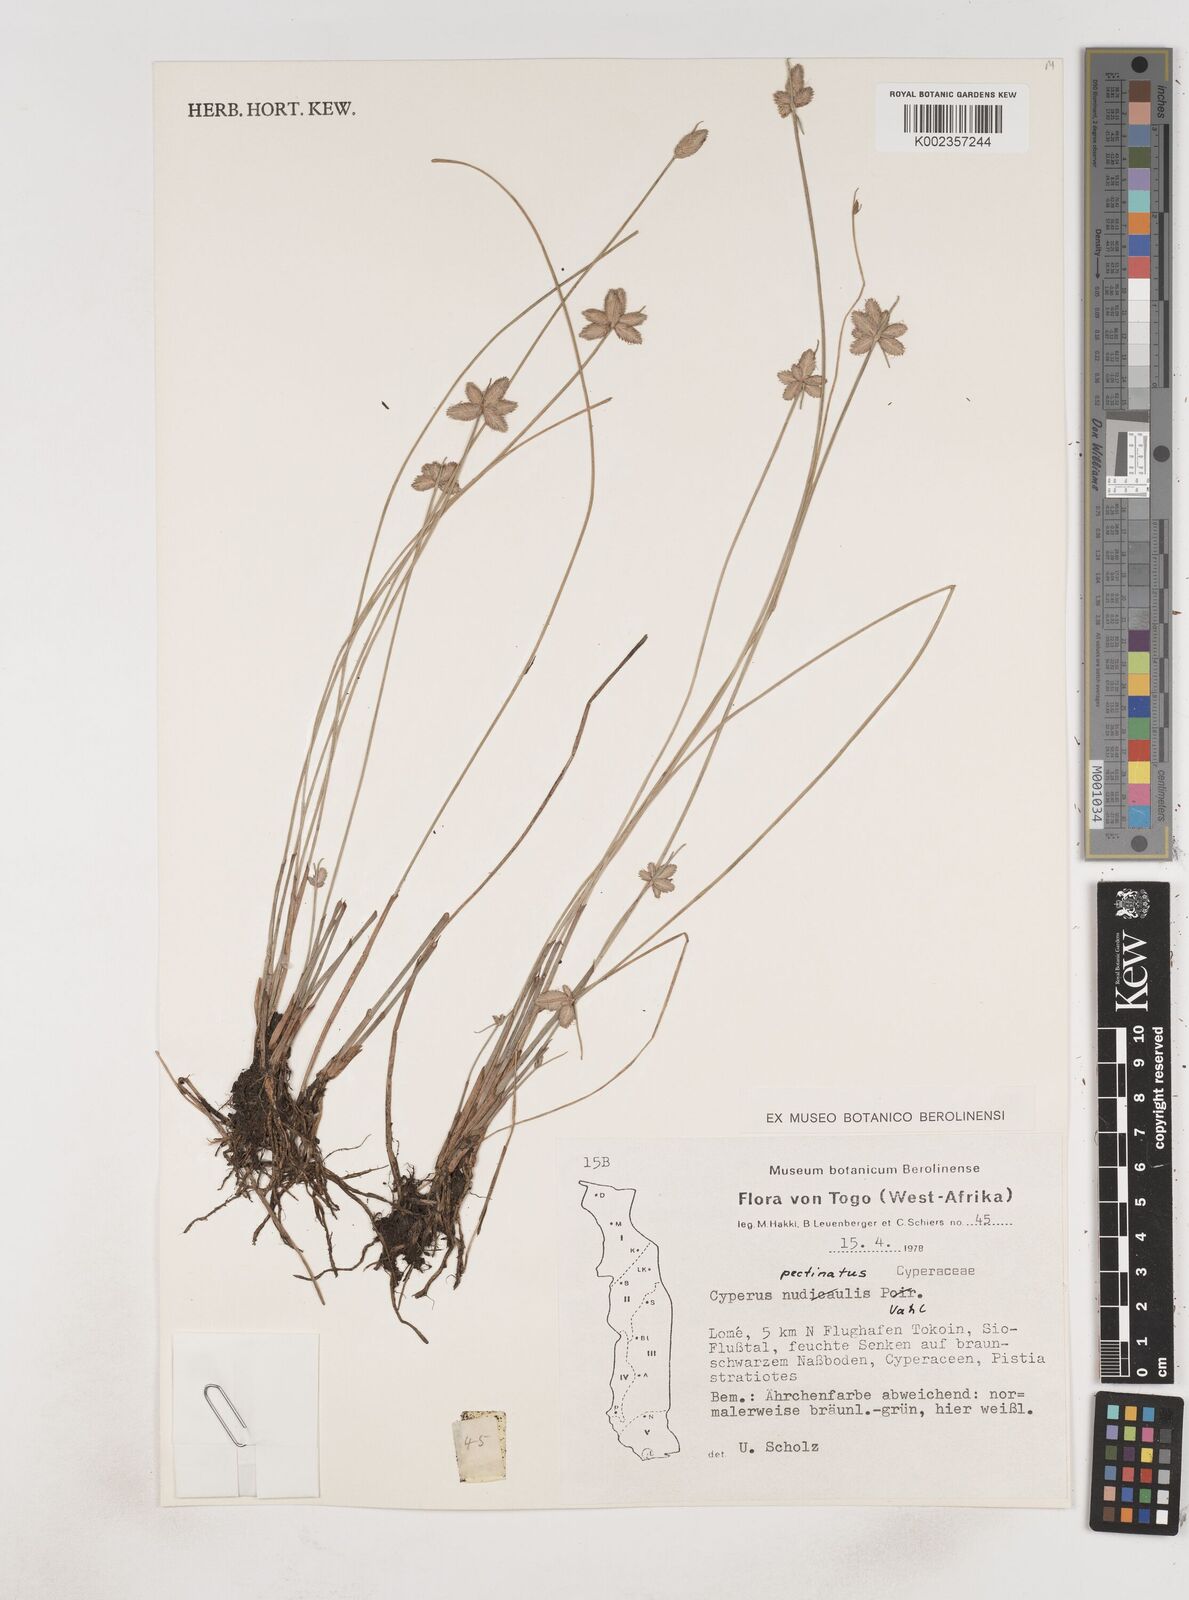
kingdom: Plantae
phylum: Tracheophyta
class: Liliopsida
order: Poales
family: Cyperaceae
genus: Cyperus
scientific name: Cyperus pectinatus
